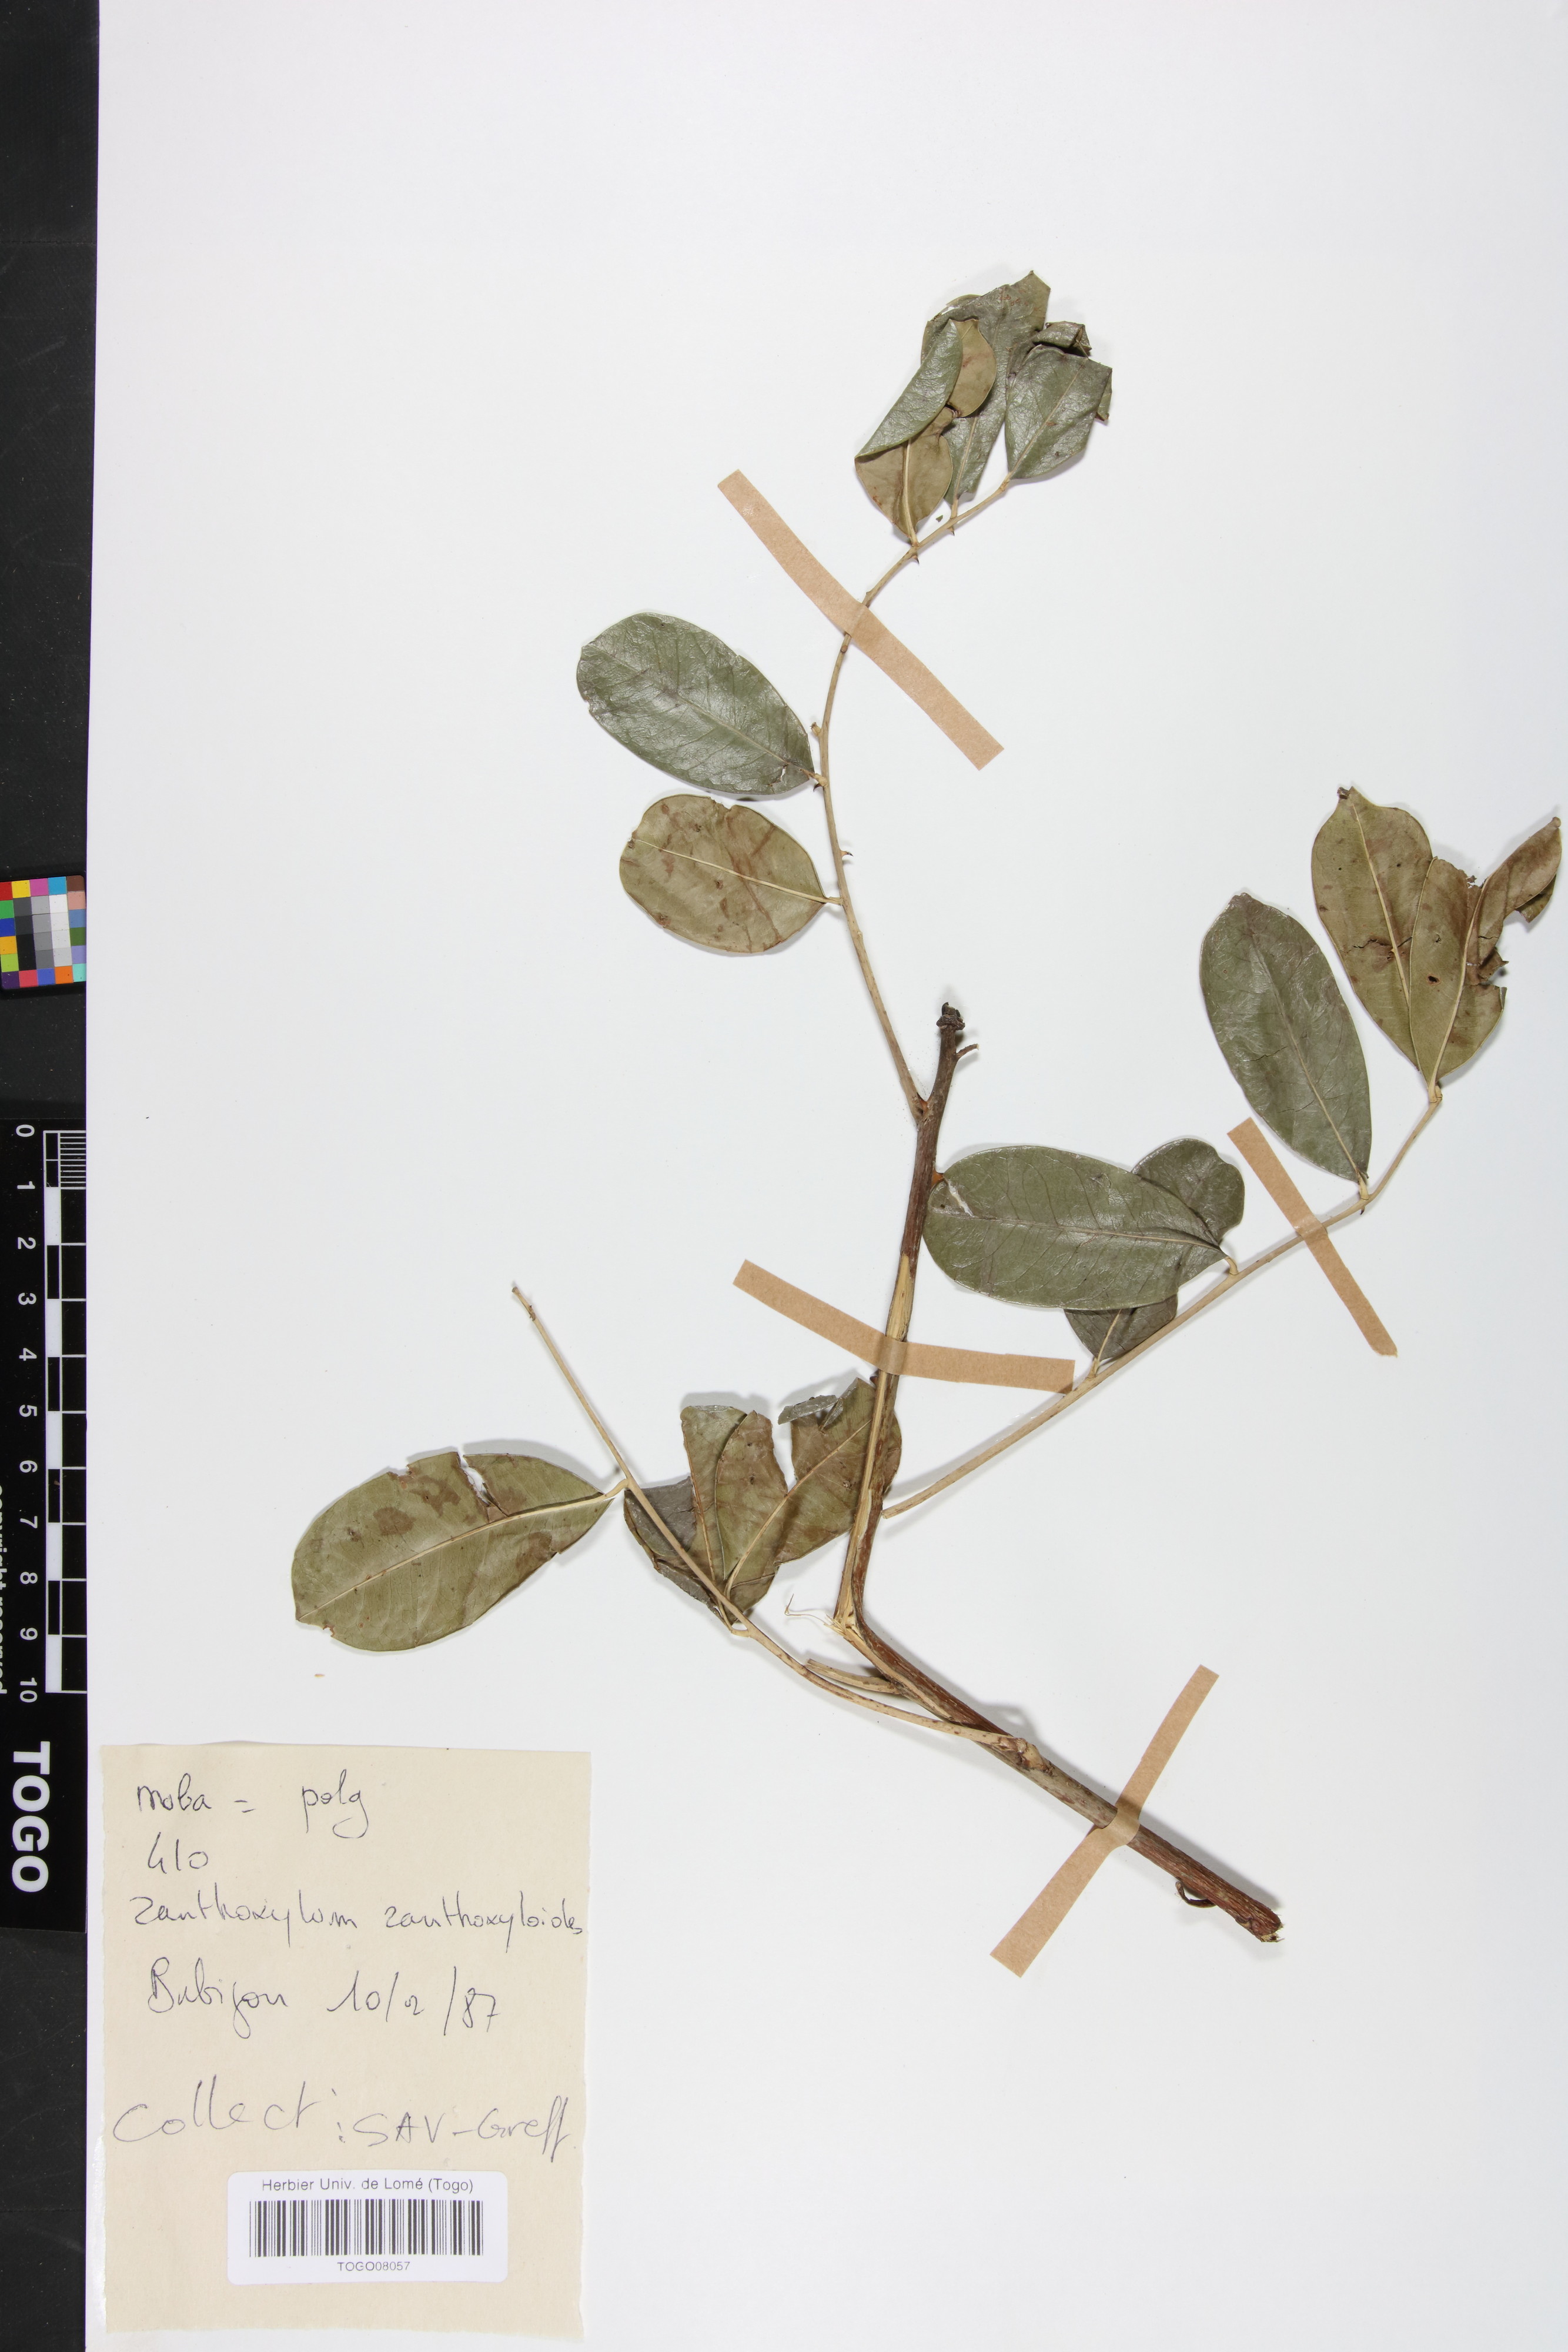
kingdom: Plantae
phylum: Tracheophyta
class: Magnoliopsida
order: Sapindales
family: Rutaceae
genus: Zanthoxylum
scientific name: Zanthoxylum zanthoxyloides
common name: Senegal prickly-ash
